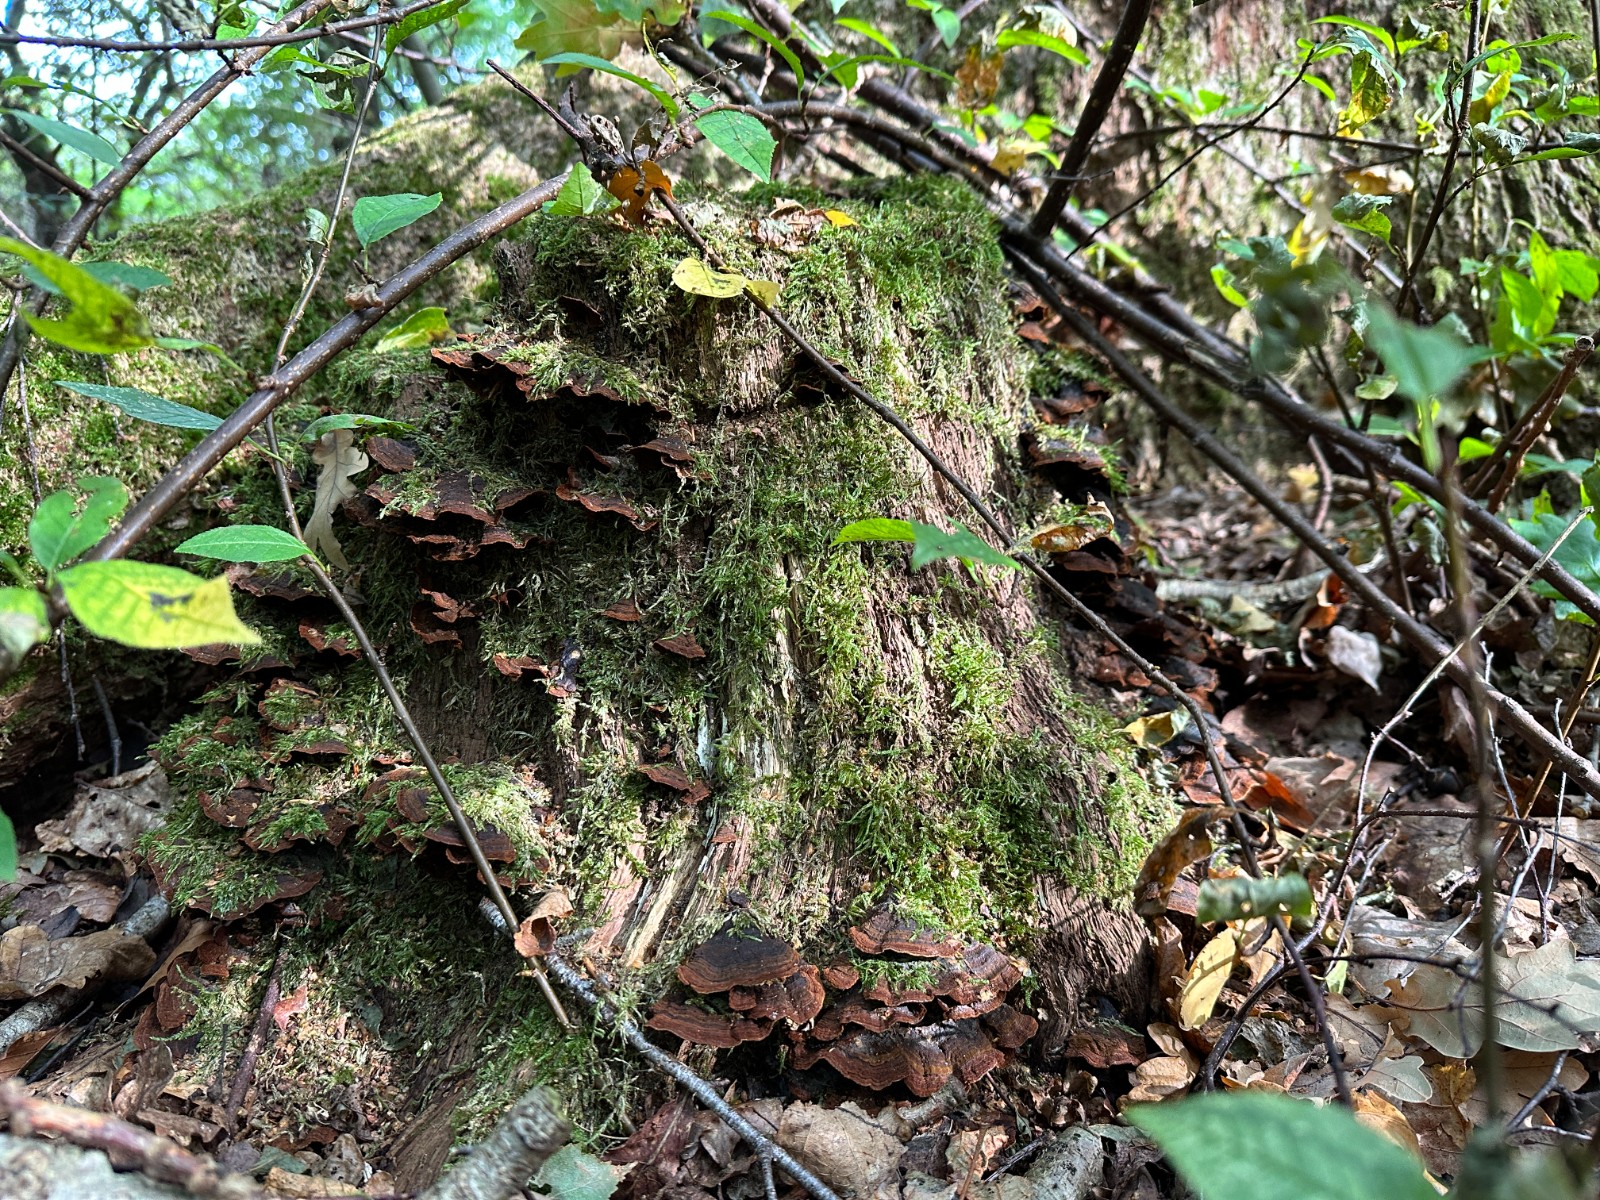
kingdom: Fungi
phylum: Basidiomycota
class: Agaricomycetes
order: Hymenochaetales
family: Hymenochaetaceae
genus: Hymenochaete
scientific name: Hymenochaete rubiginosa
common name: stiv ruslædersvamp
